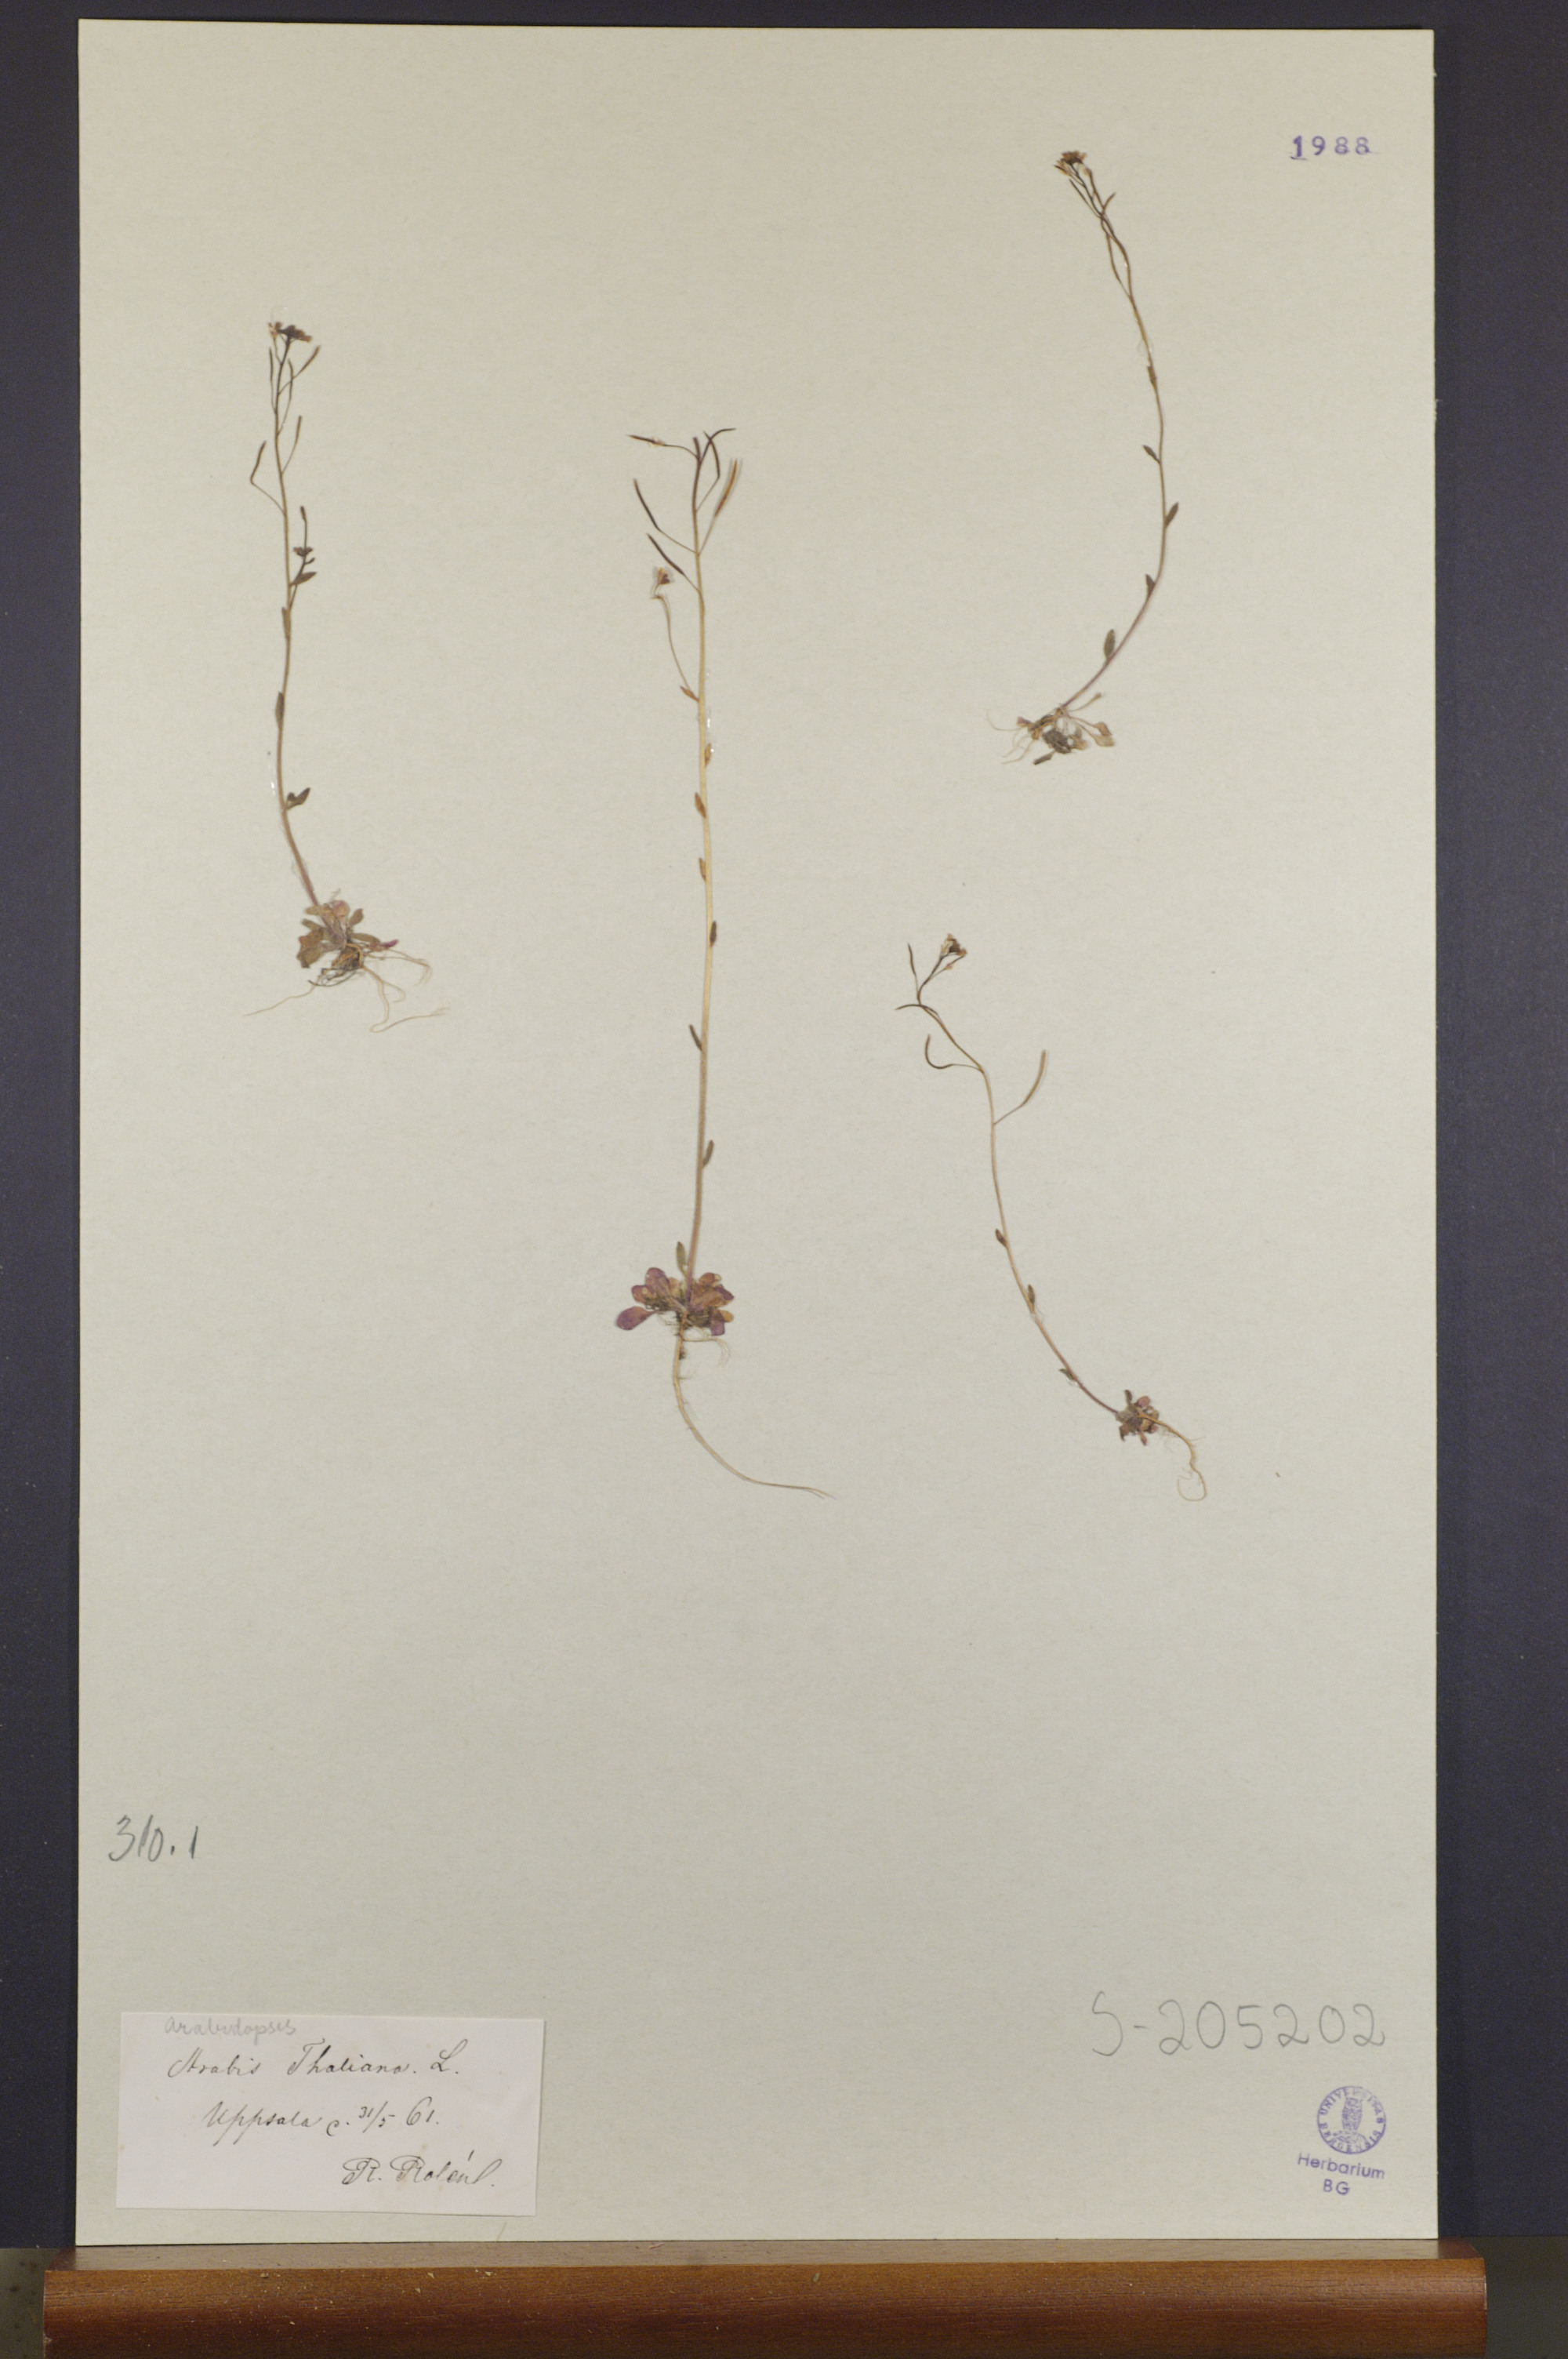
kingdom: Plantae
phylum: Tracheophyta
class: Magnoliopsida
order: Brassicales
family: Brassicaceae
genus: Arabidopsis
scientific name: Arabidopsis thaliana
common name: Thale cress
